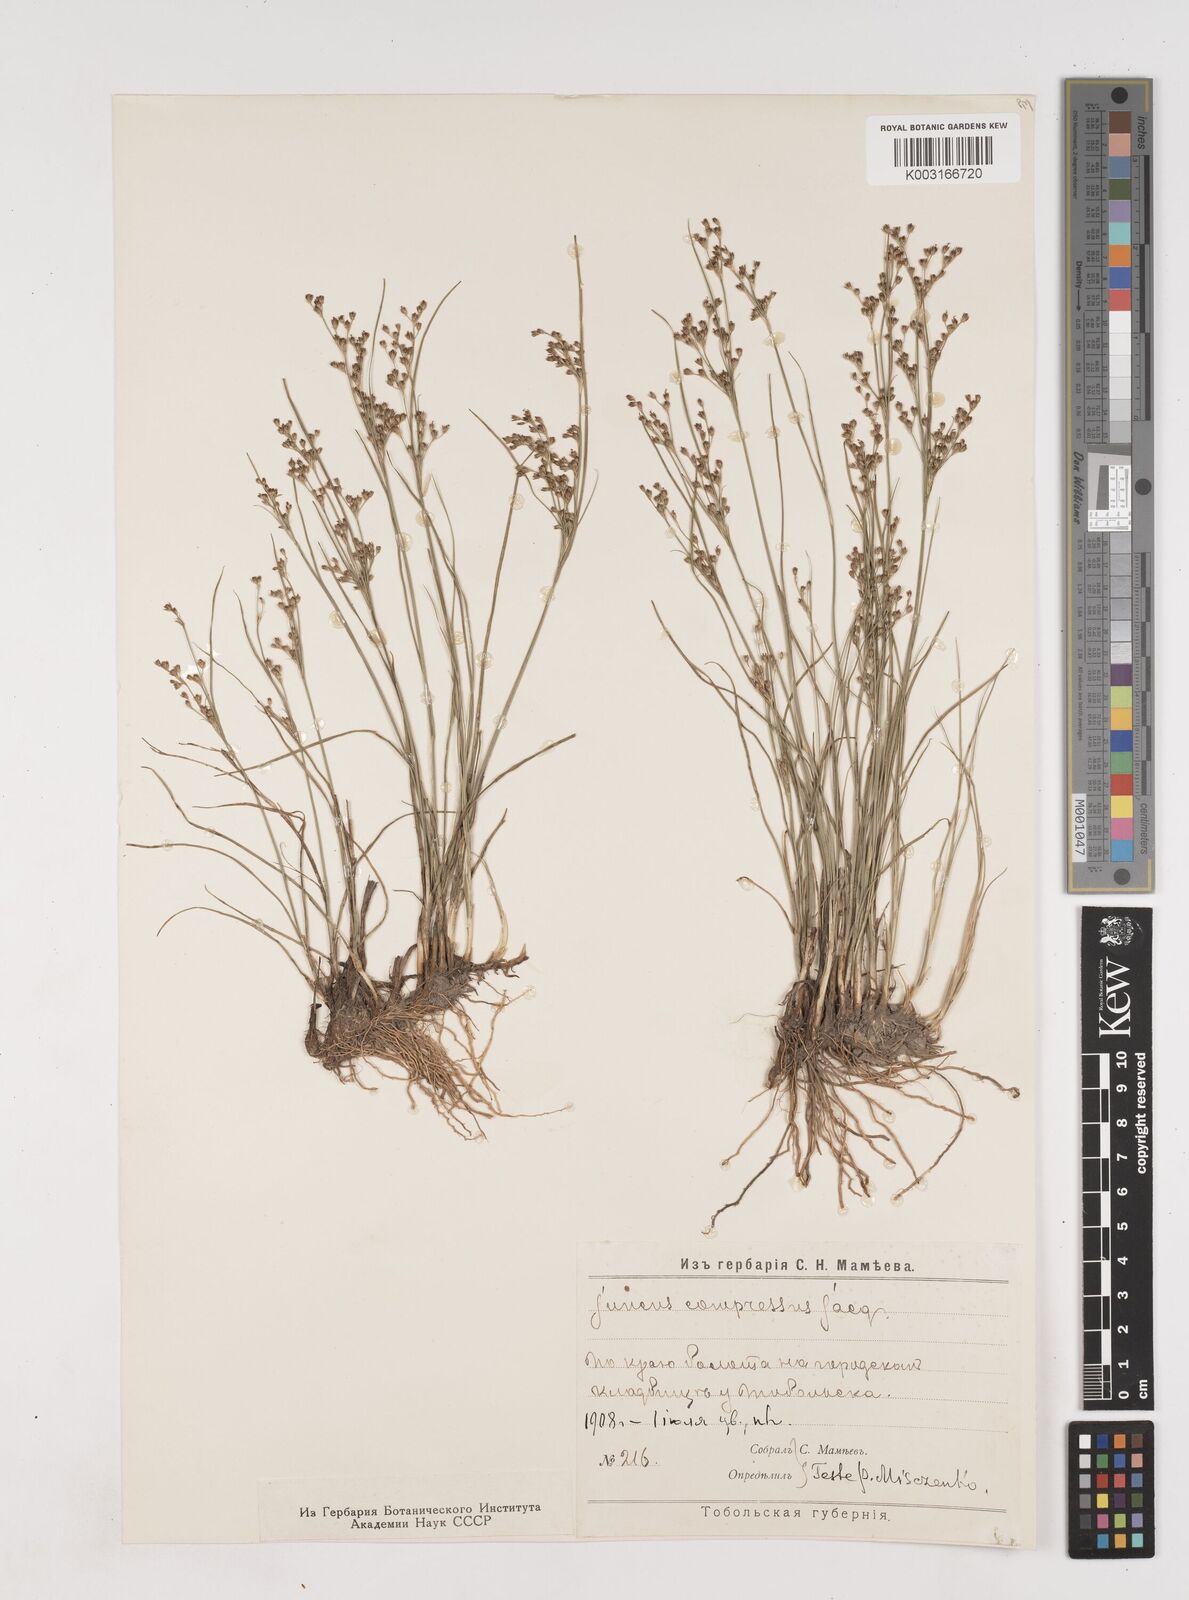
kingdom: Plantae
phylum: Tracheophyta
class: Liliopsida
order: Poales
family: Juncaceae
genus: Juncus
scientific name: Juncus
